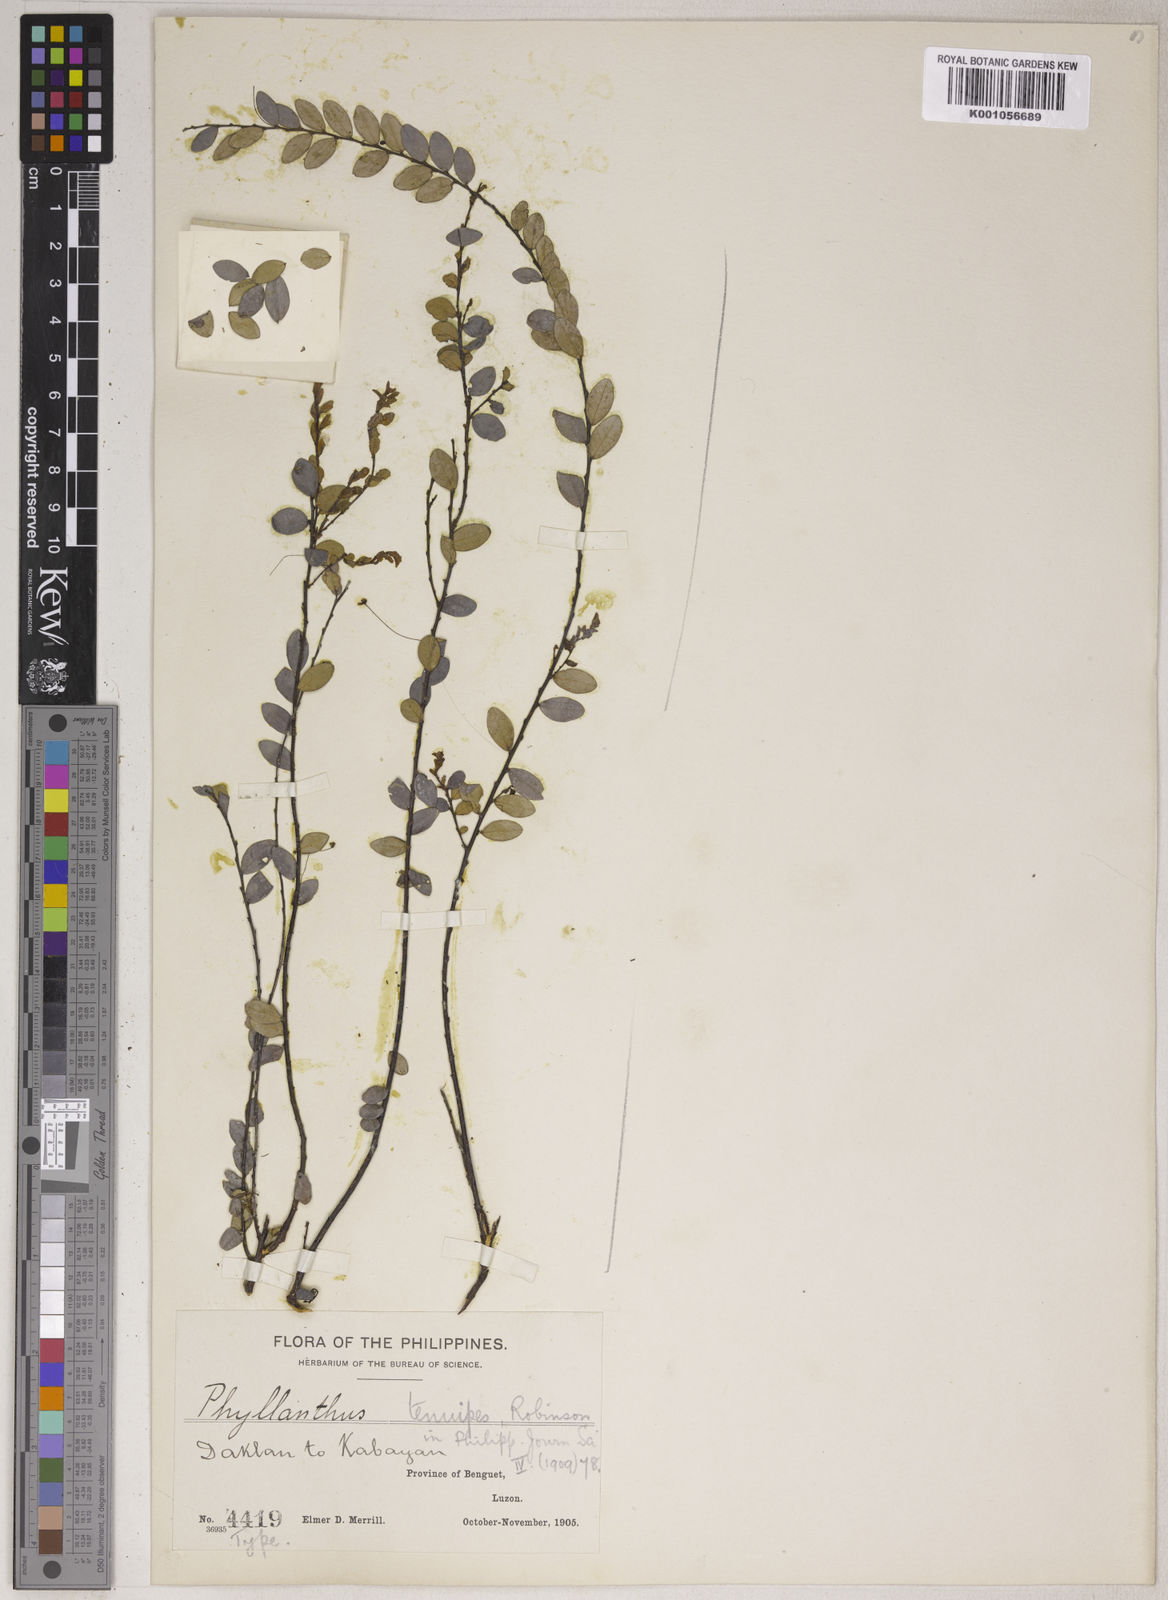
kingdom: Plantae
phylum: Tracheophyta
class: Magnoliopsida
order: Malpighiales
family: Phyllanthaceae
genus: Phyllanthus
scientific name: Phyllanthus tenuipes
